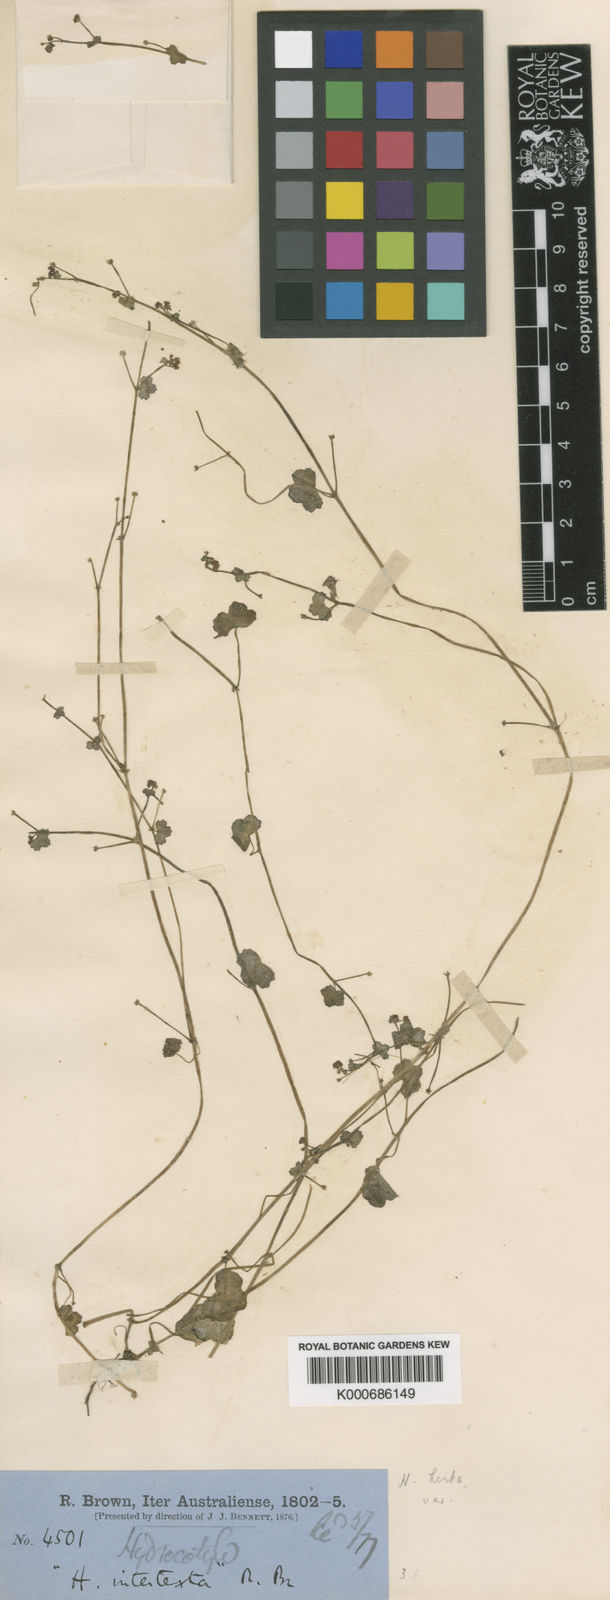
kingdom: Plantae
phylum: Tracheophyta
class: Magnoliopsida
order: Apiales
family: Araliaceae
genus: Hydrocotyle
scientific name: Hydrocotyle hispidula
